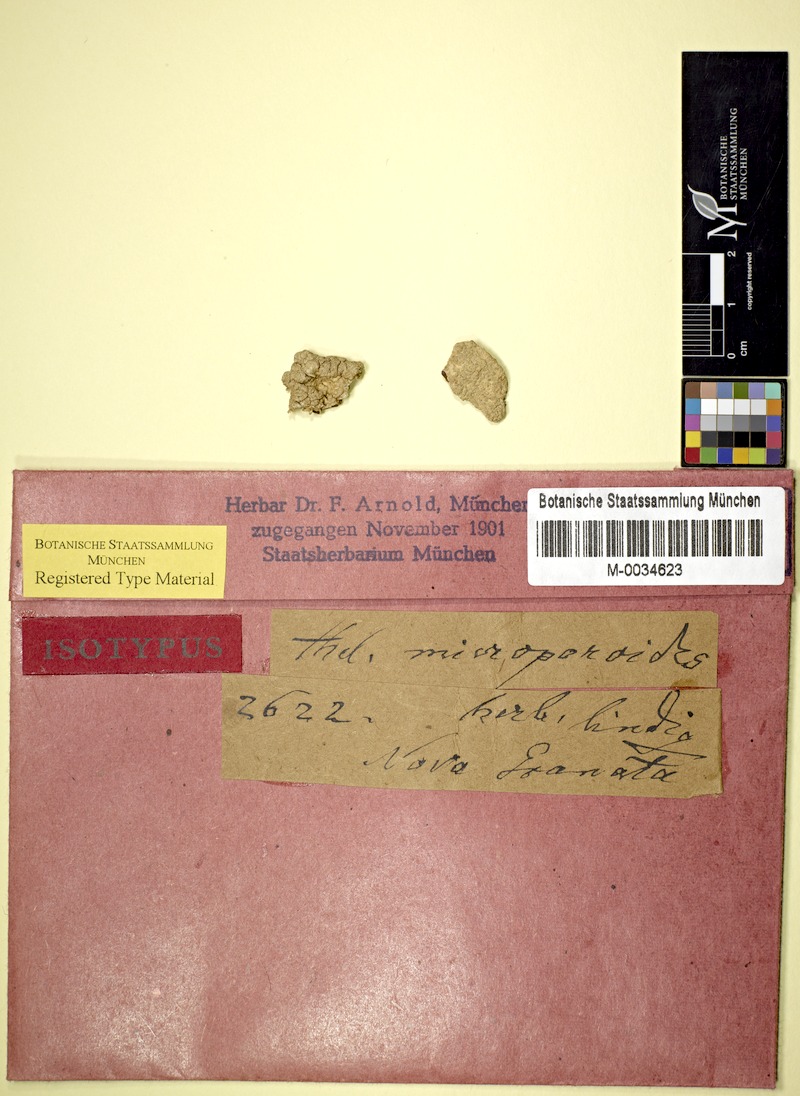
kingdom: Fungi
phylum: Ascomycota
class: Lecanoromycetes
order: Ostropales
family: Graphidaceae
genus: Thelotrema
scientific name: Thelotrema
